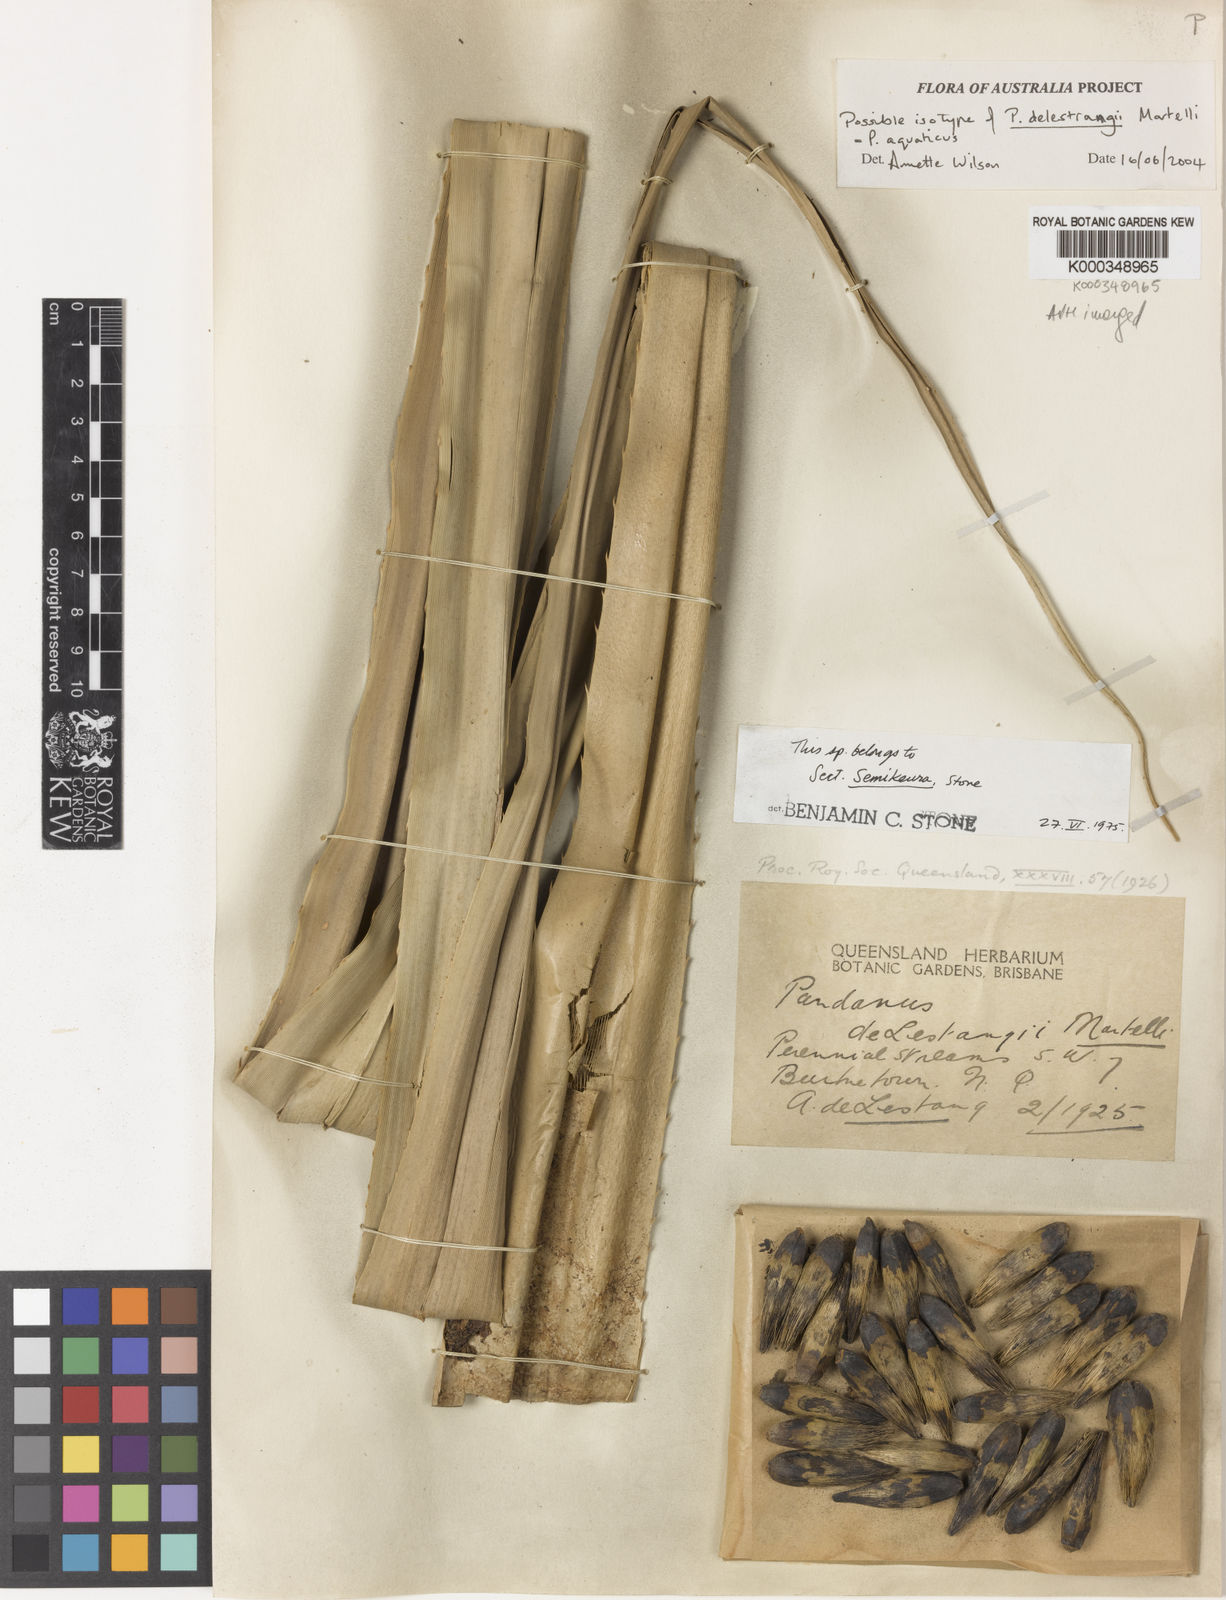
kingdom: Plantae
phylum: Tracheophyta
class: Liliopsida
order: Pandanales
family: Pandanaceae
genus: Pandanus
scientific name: Pandanus aquaticus
